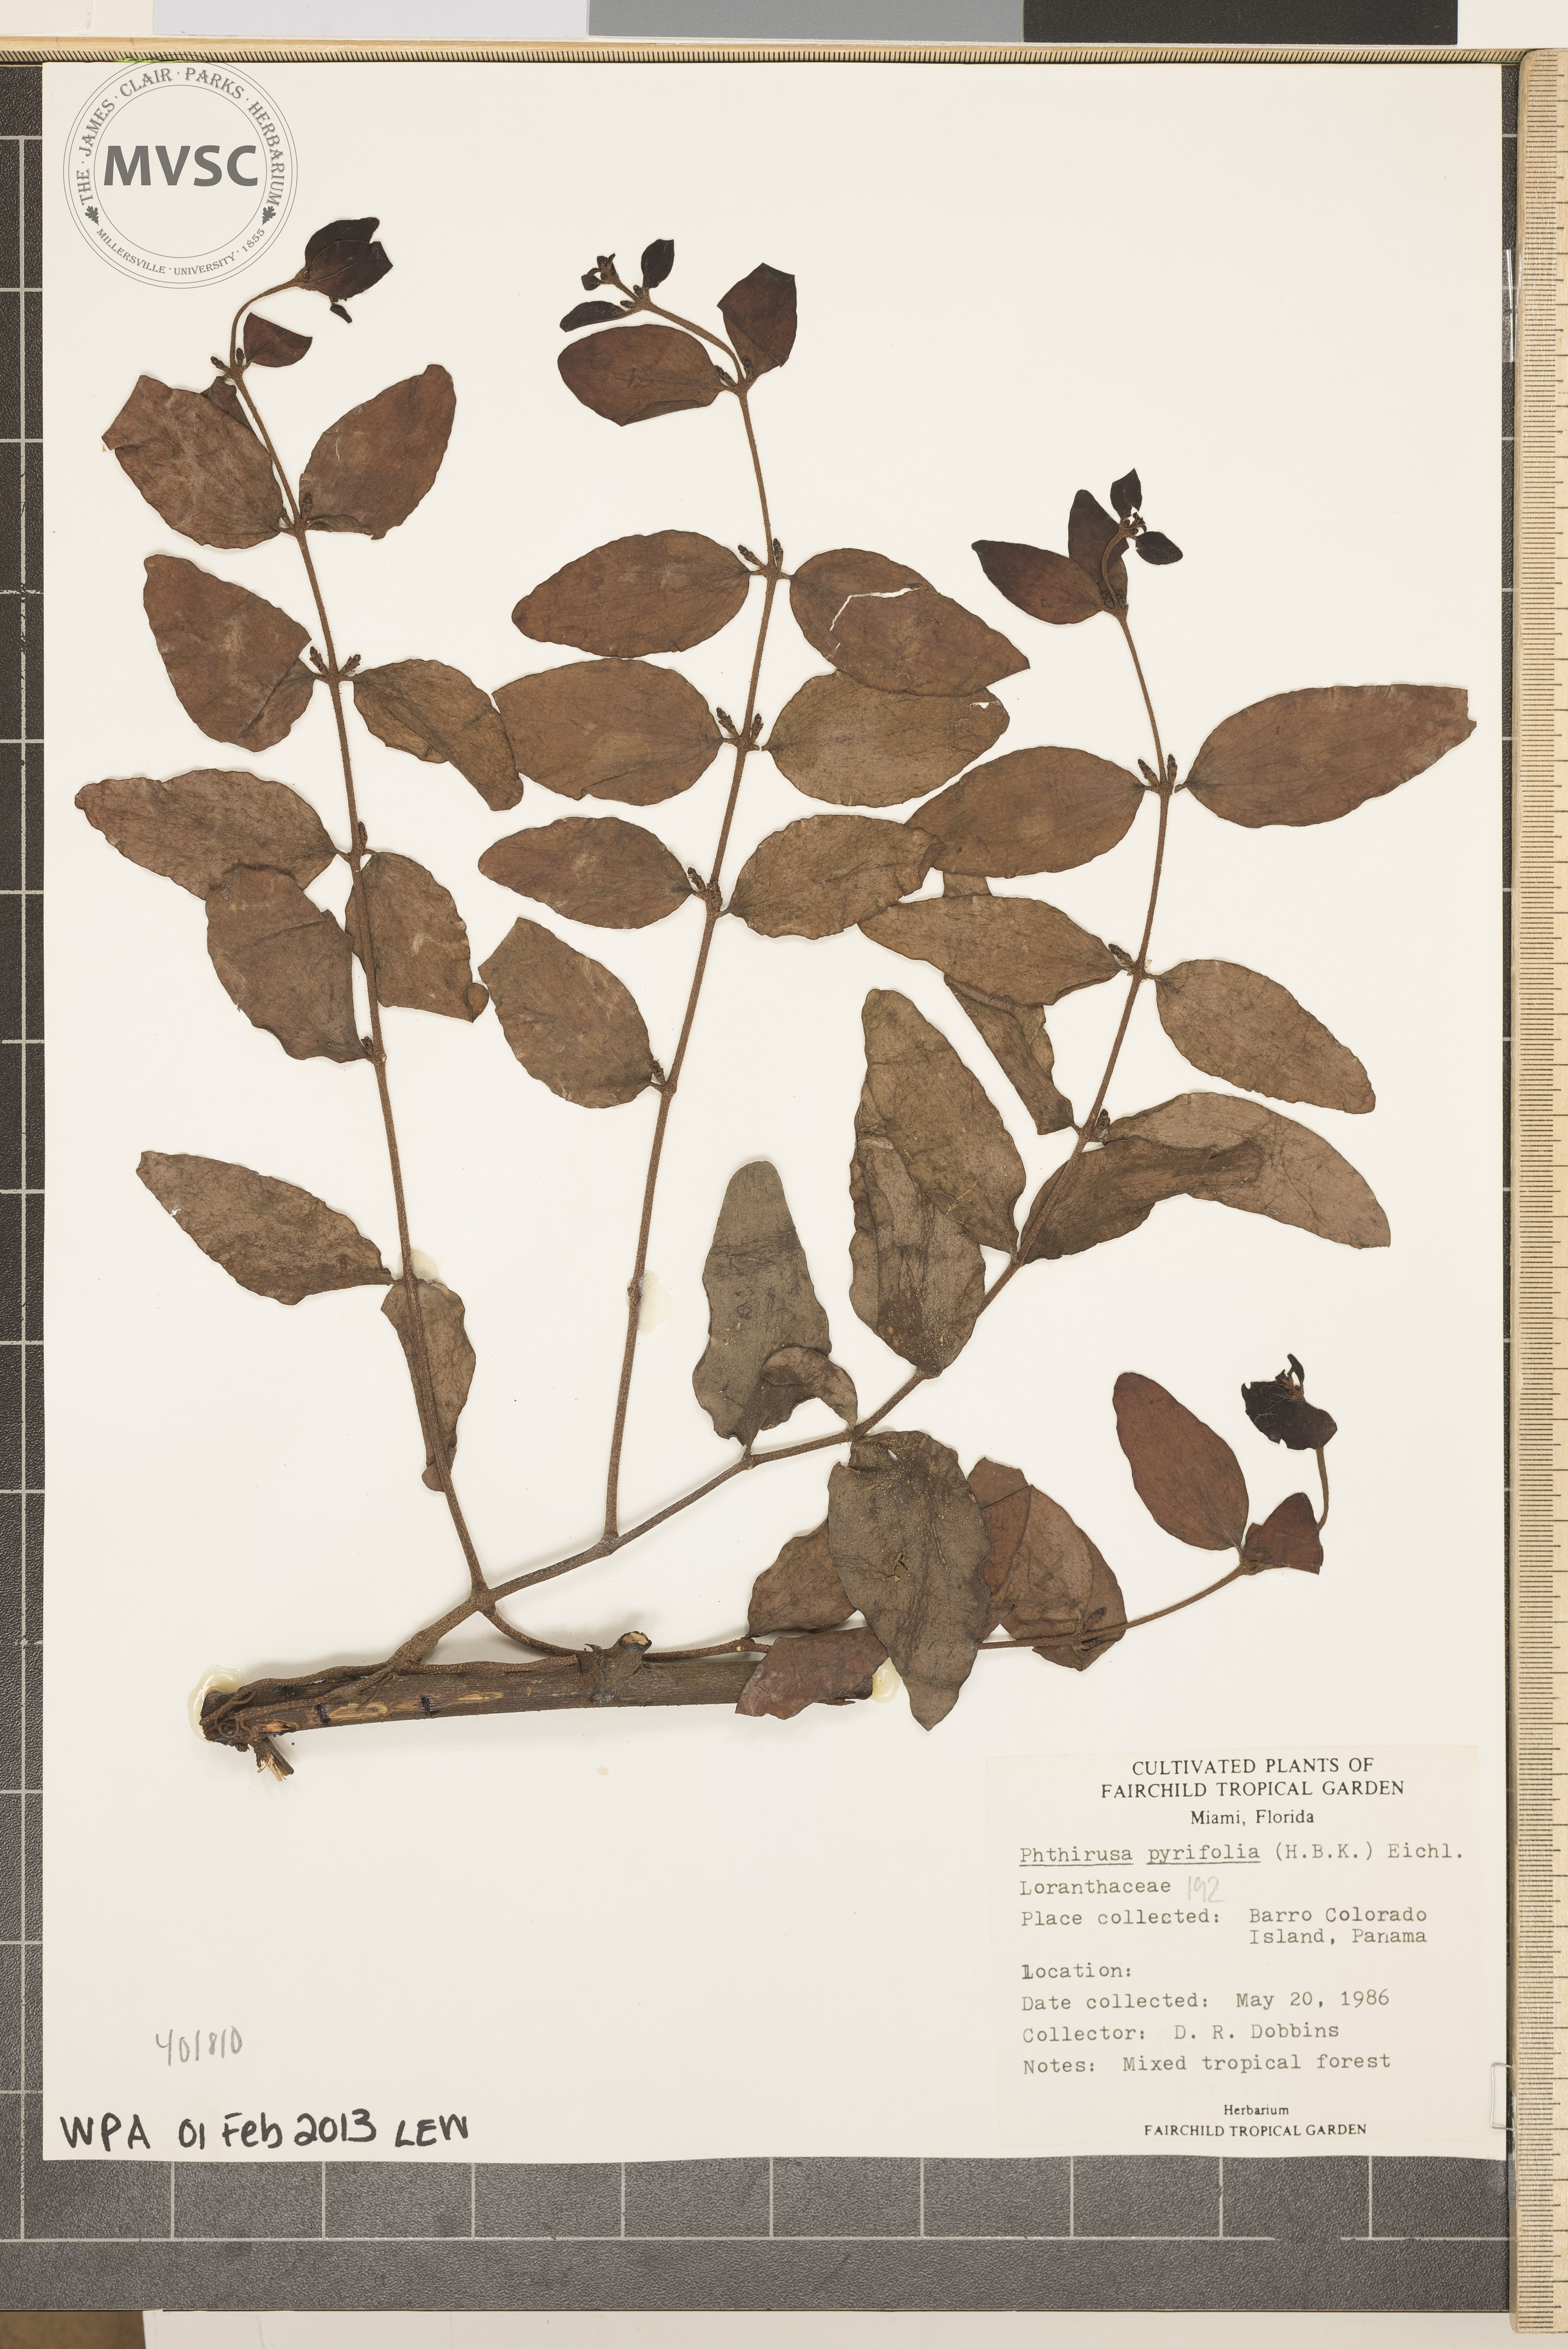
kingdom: Plantae
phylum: Tracheophyta
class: Magnoliopsida
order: Santalales
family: Loranthaceae
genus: Passovia
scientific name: Passovia pyrifolia
